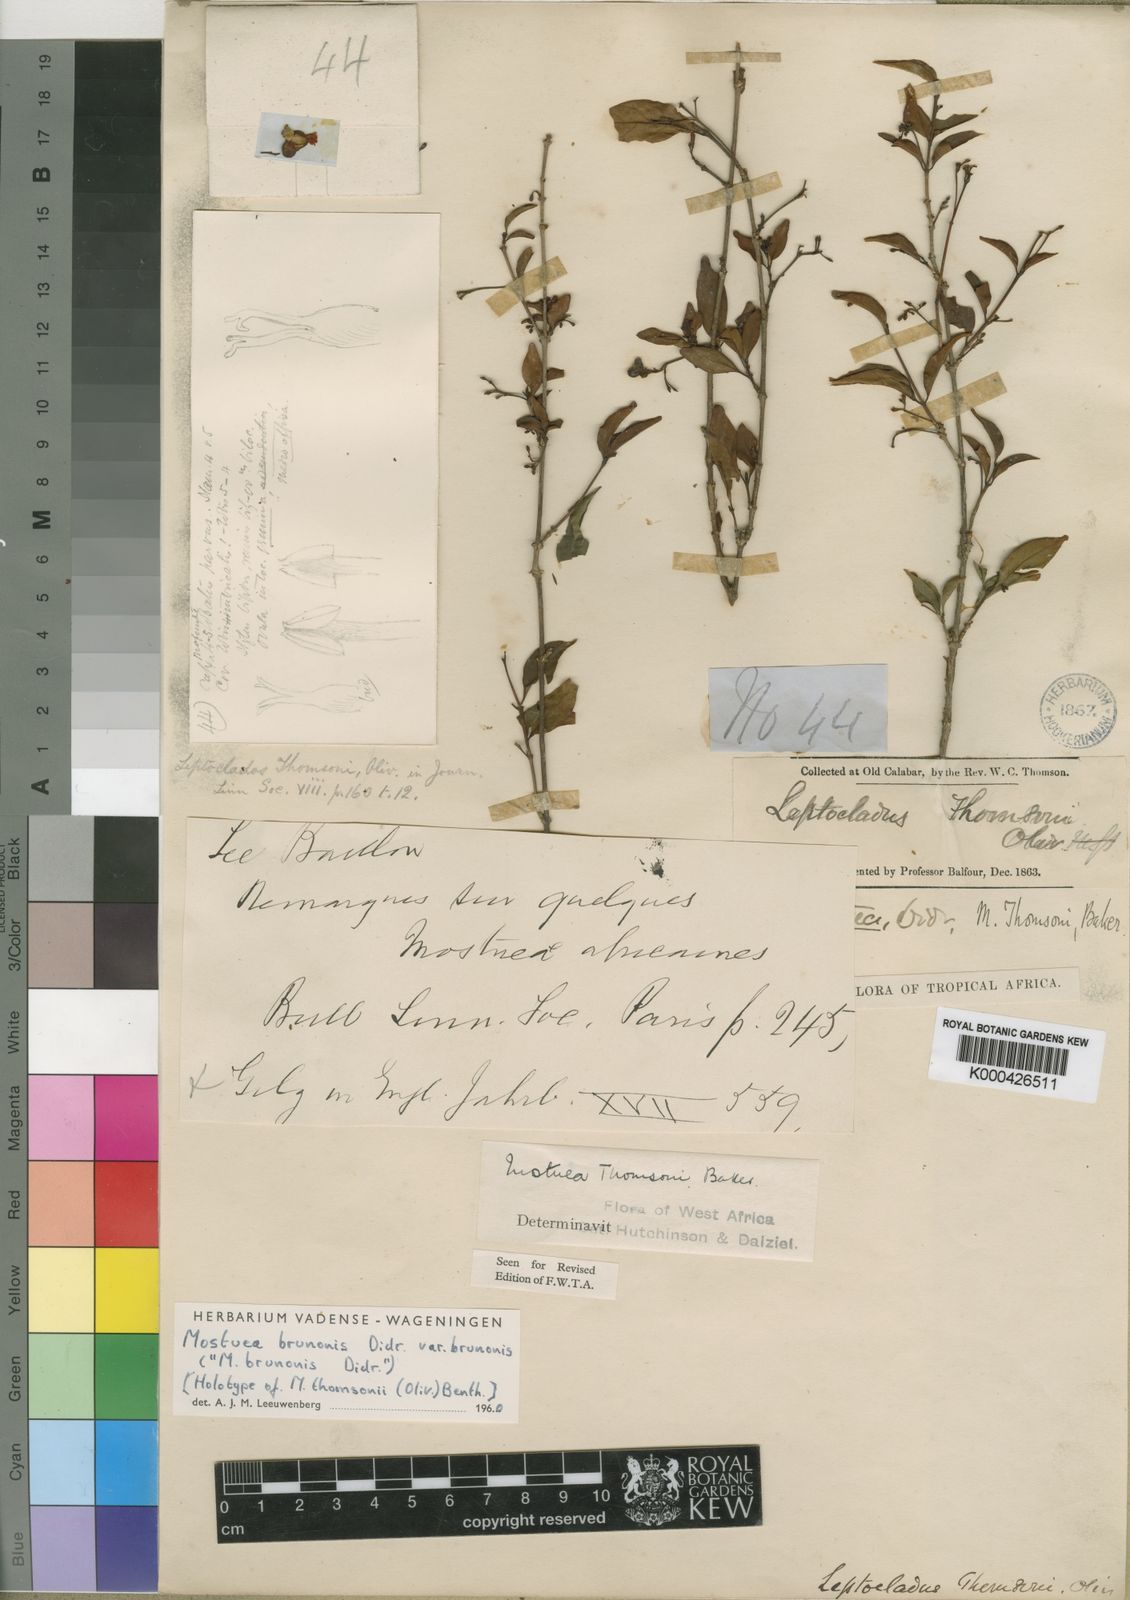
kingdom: Plantae
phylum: Tracheophyta
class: Magnoliopsida
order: Gentianales
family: Gelsemiaceae
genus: Mostuea
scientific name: Mostuea brunonis
